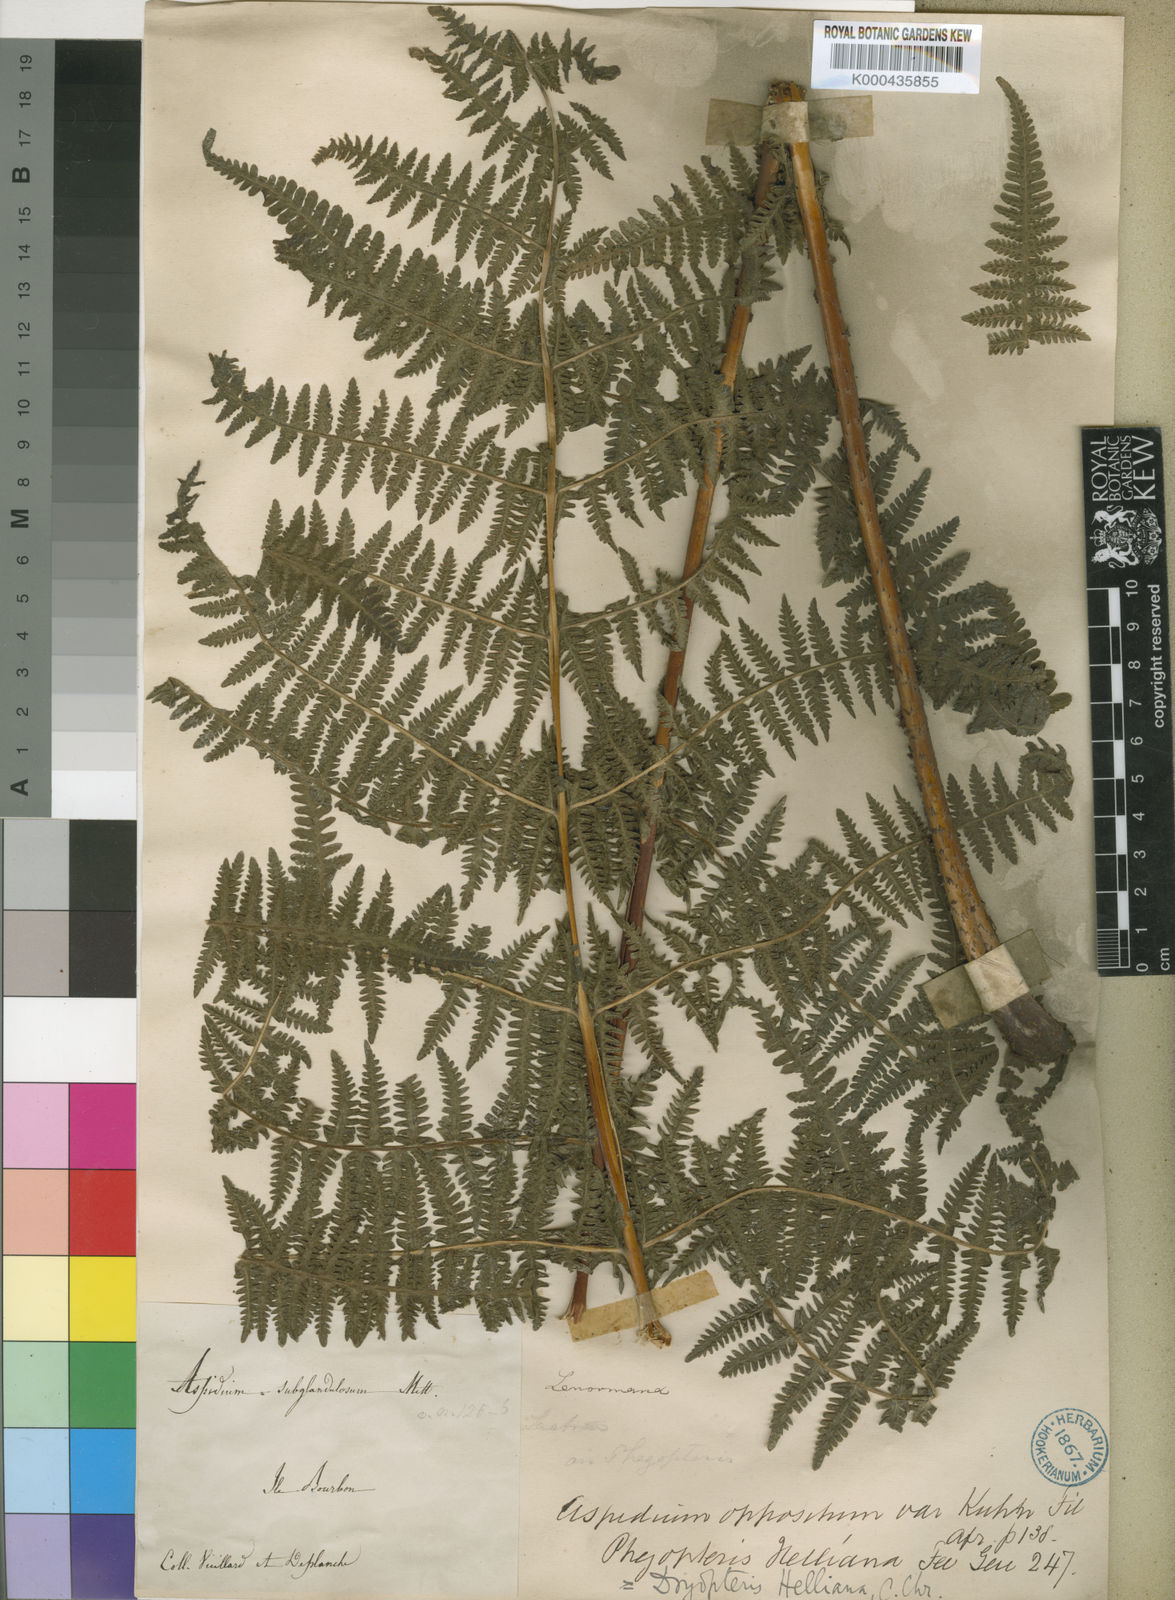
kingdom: Plantae
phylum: Tracheophyta
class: Polypodiopsida
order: Polypodiales
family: Thelypteridaceae
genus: Pseudophegopteris
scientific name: Pseudophegopteris cruciata
